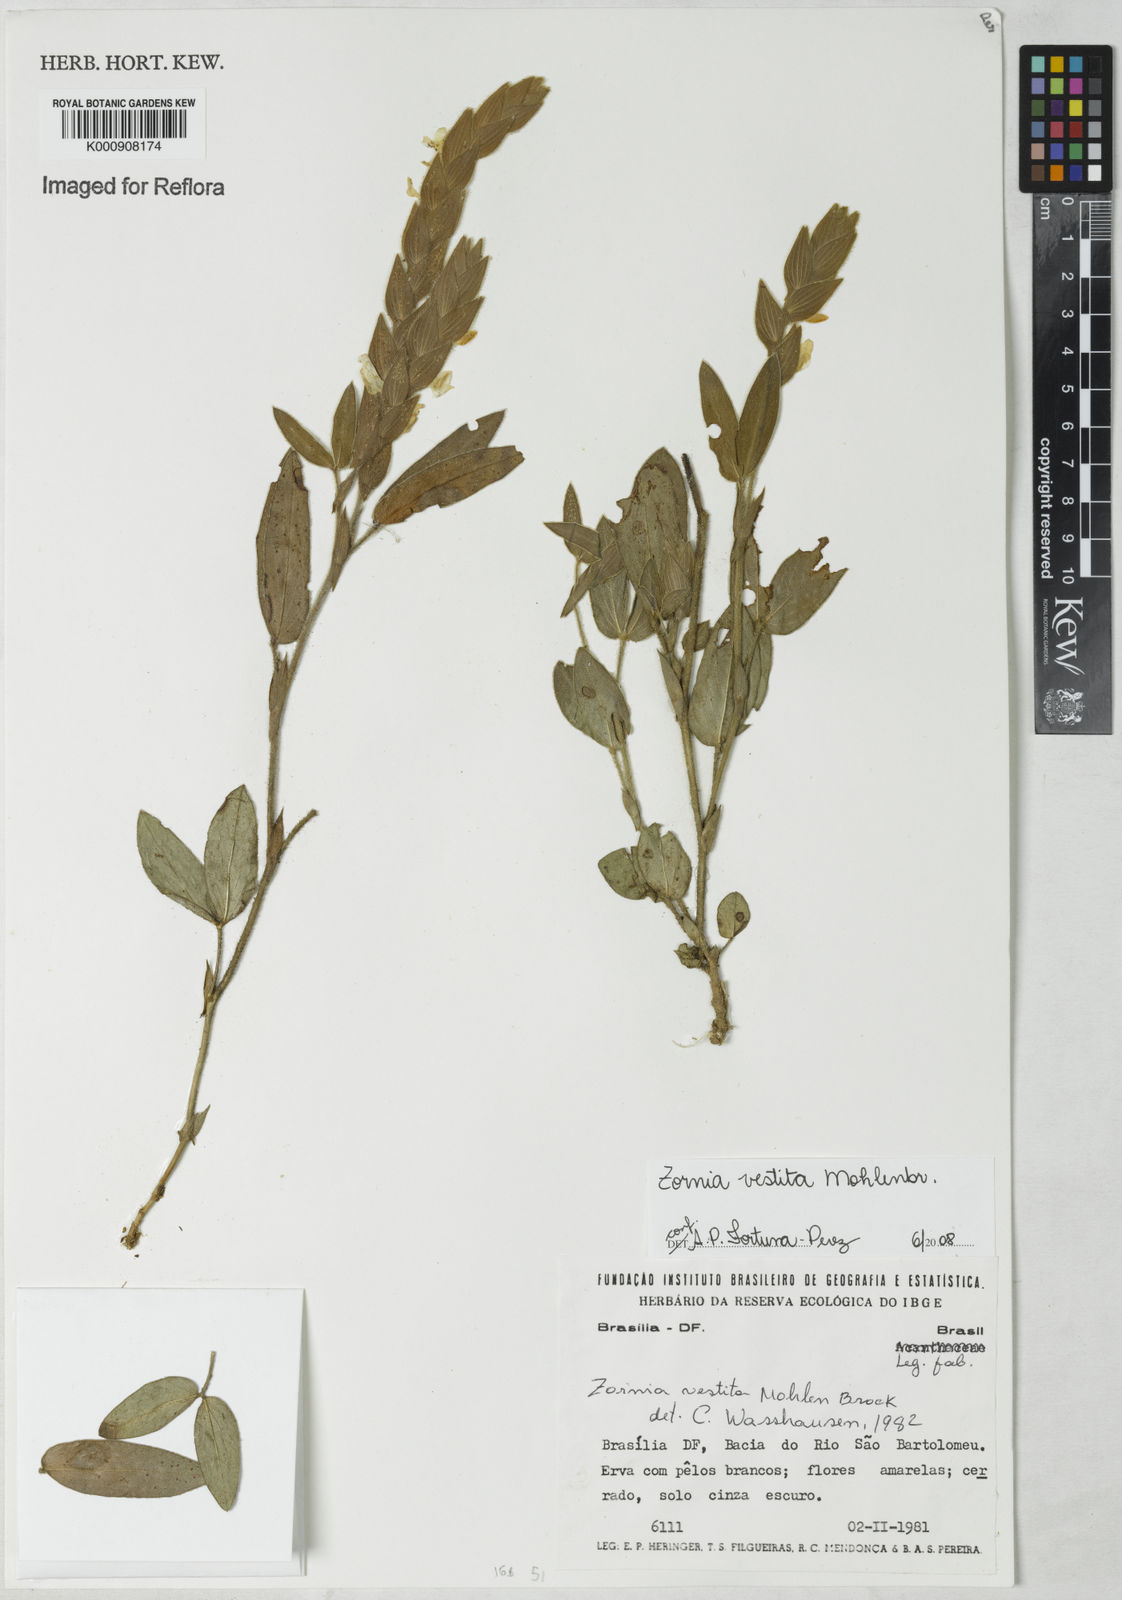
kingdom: Plantae
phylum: Tracheophyta
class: Magnoliopsida
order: Fabales
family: Fabaceae
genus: Zornia
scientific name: Zornia villosa
